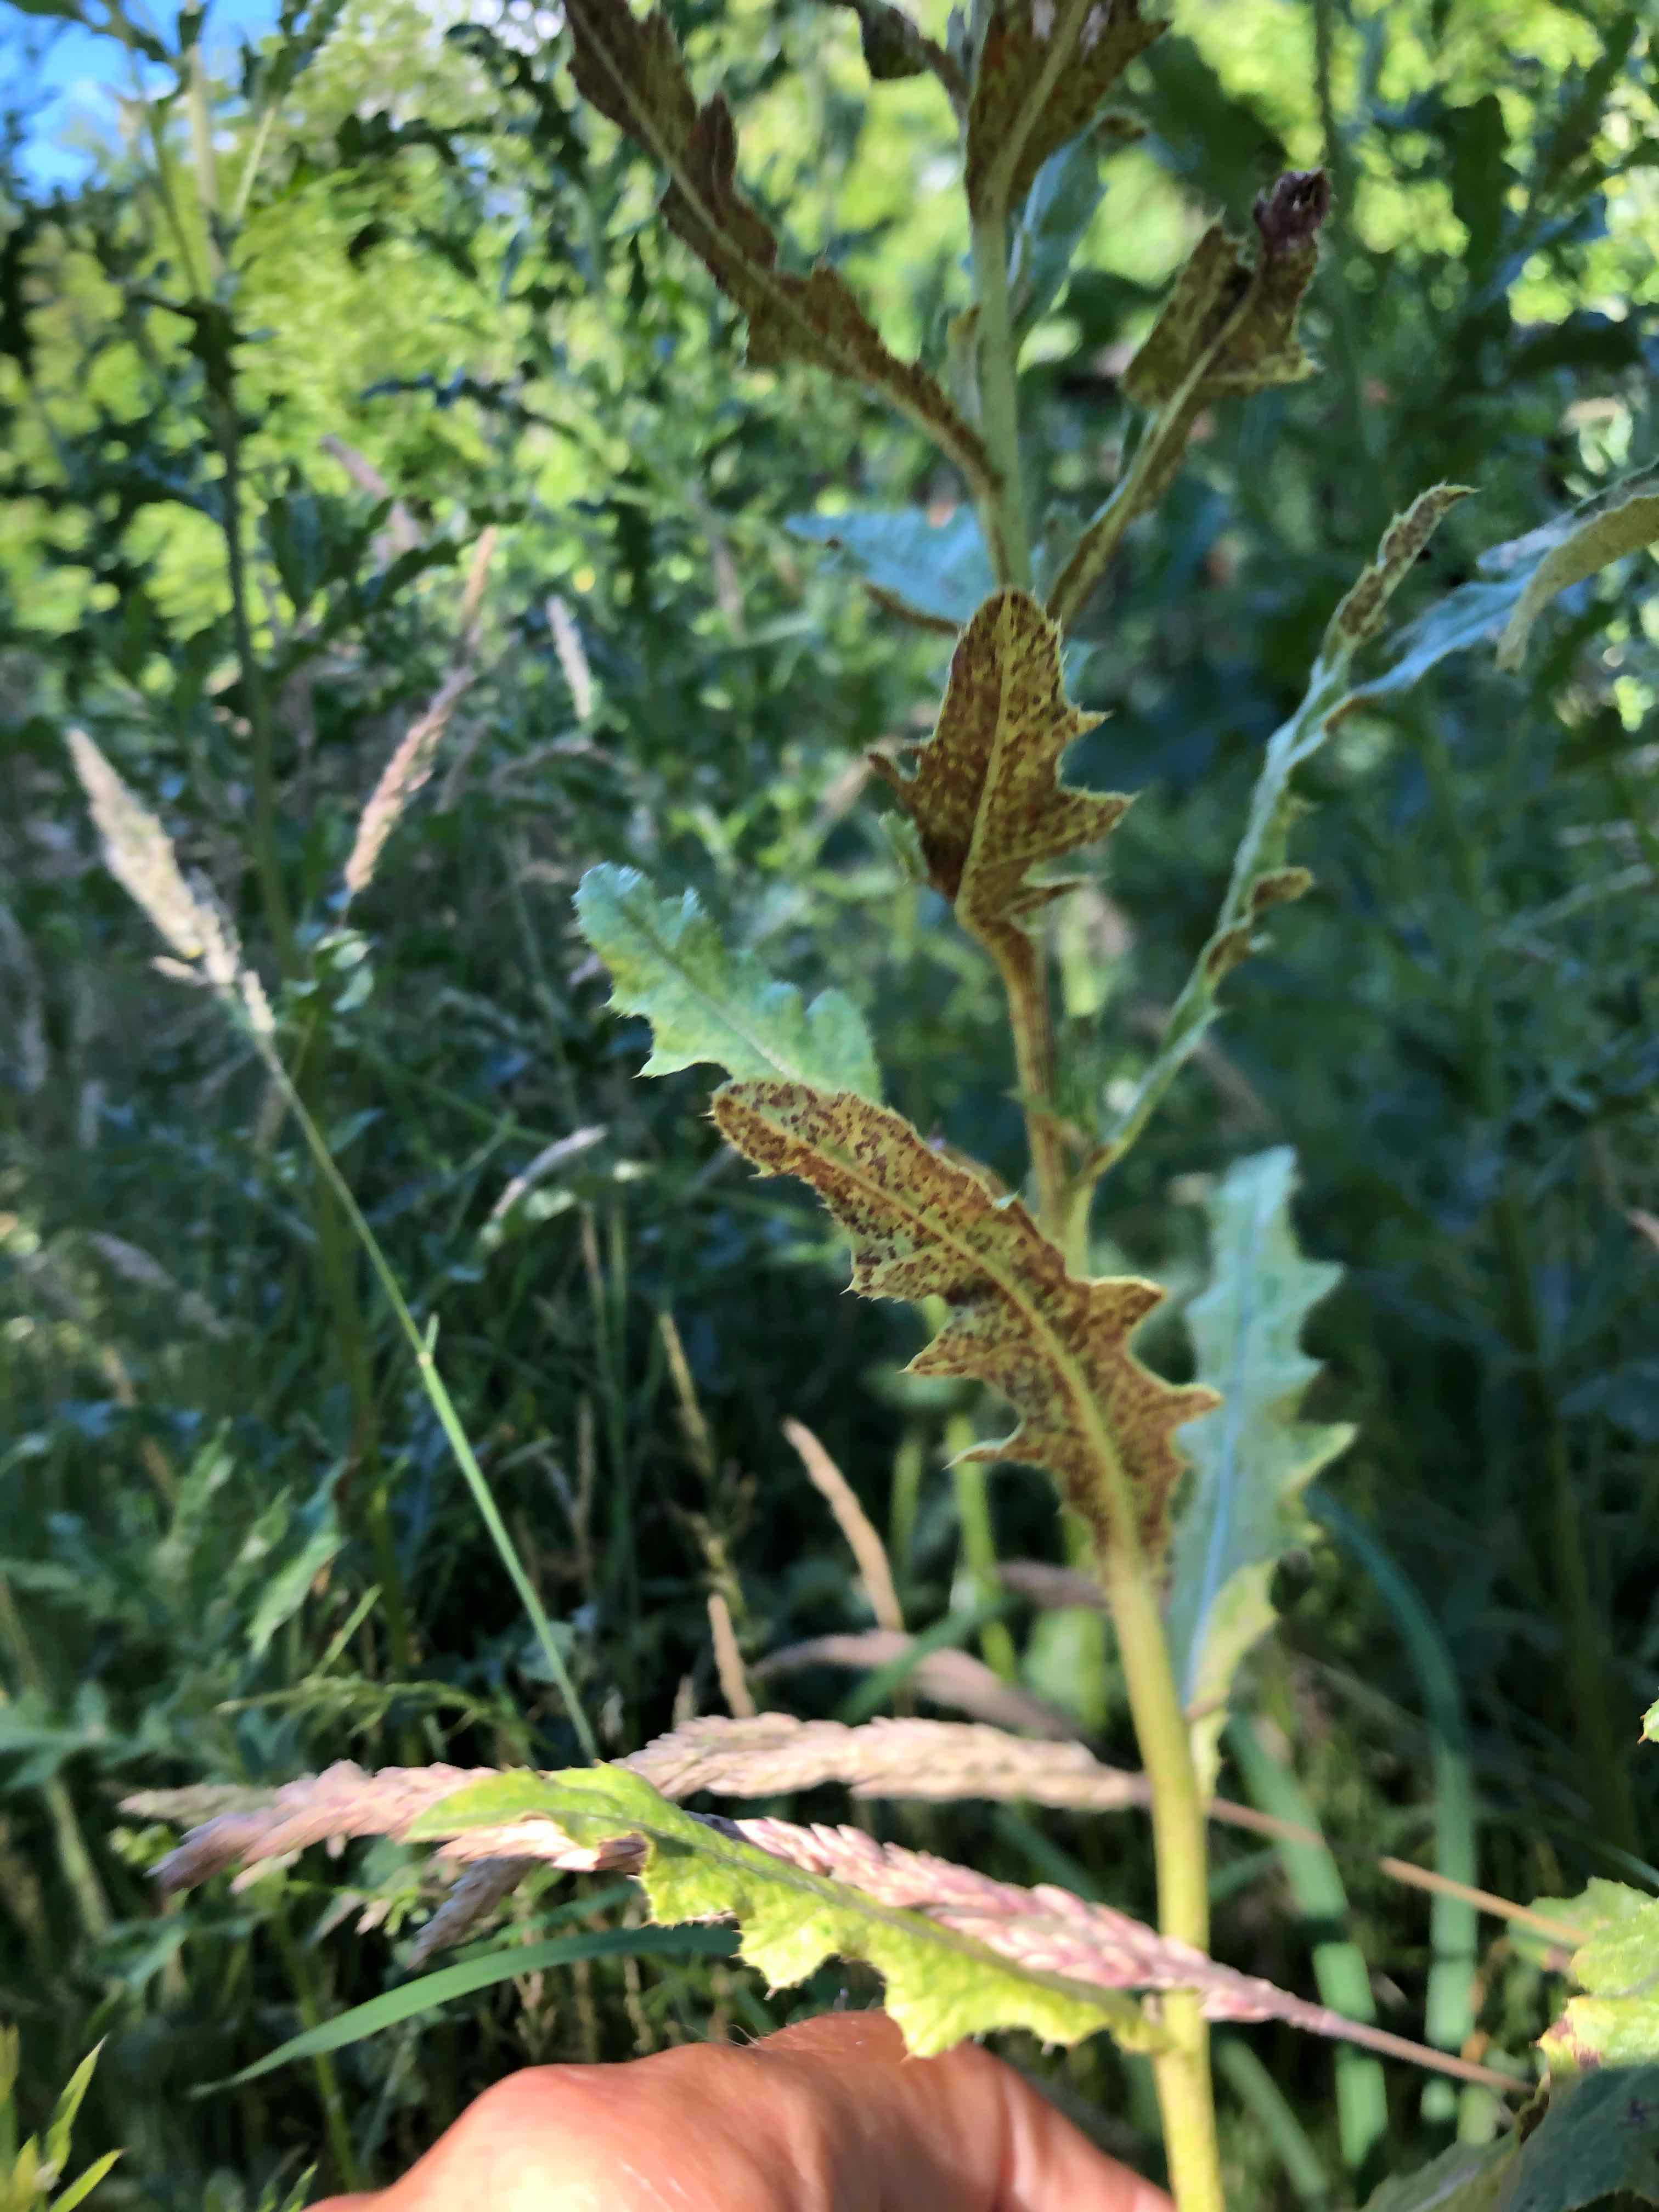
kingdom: Fungi
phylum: Basidiomycota
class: Pucciniomycetes
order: Pucciniales
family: Pucciniaceae
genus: Puccinia
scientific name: Puccinia suaveolens
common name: tidsel-tvecellerust
